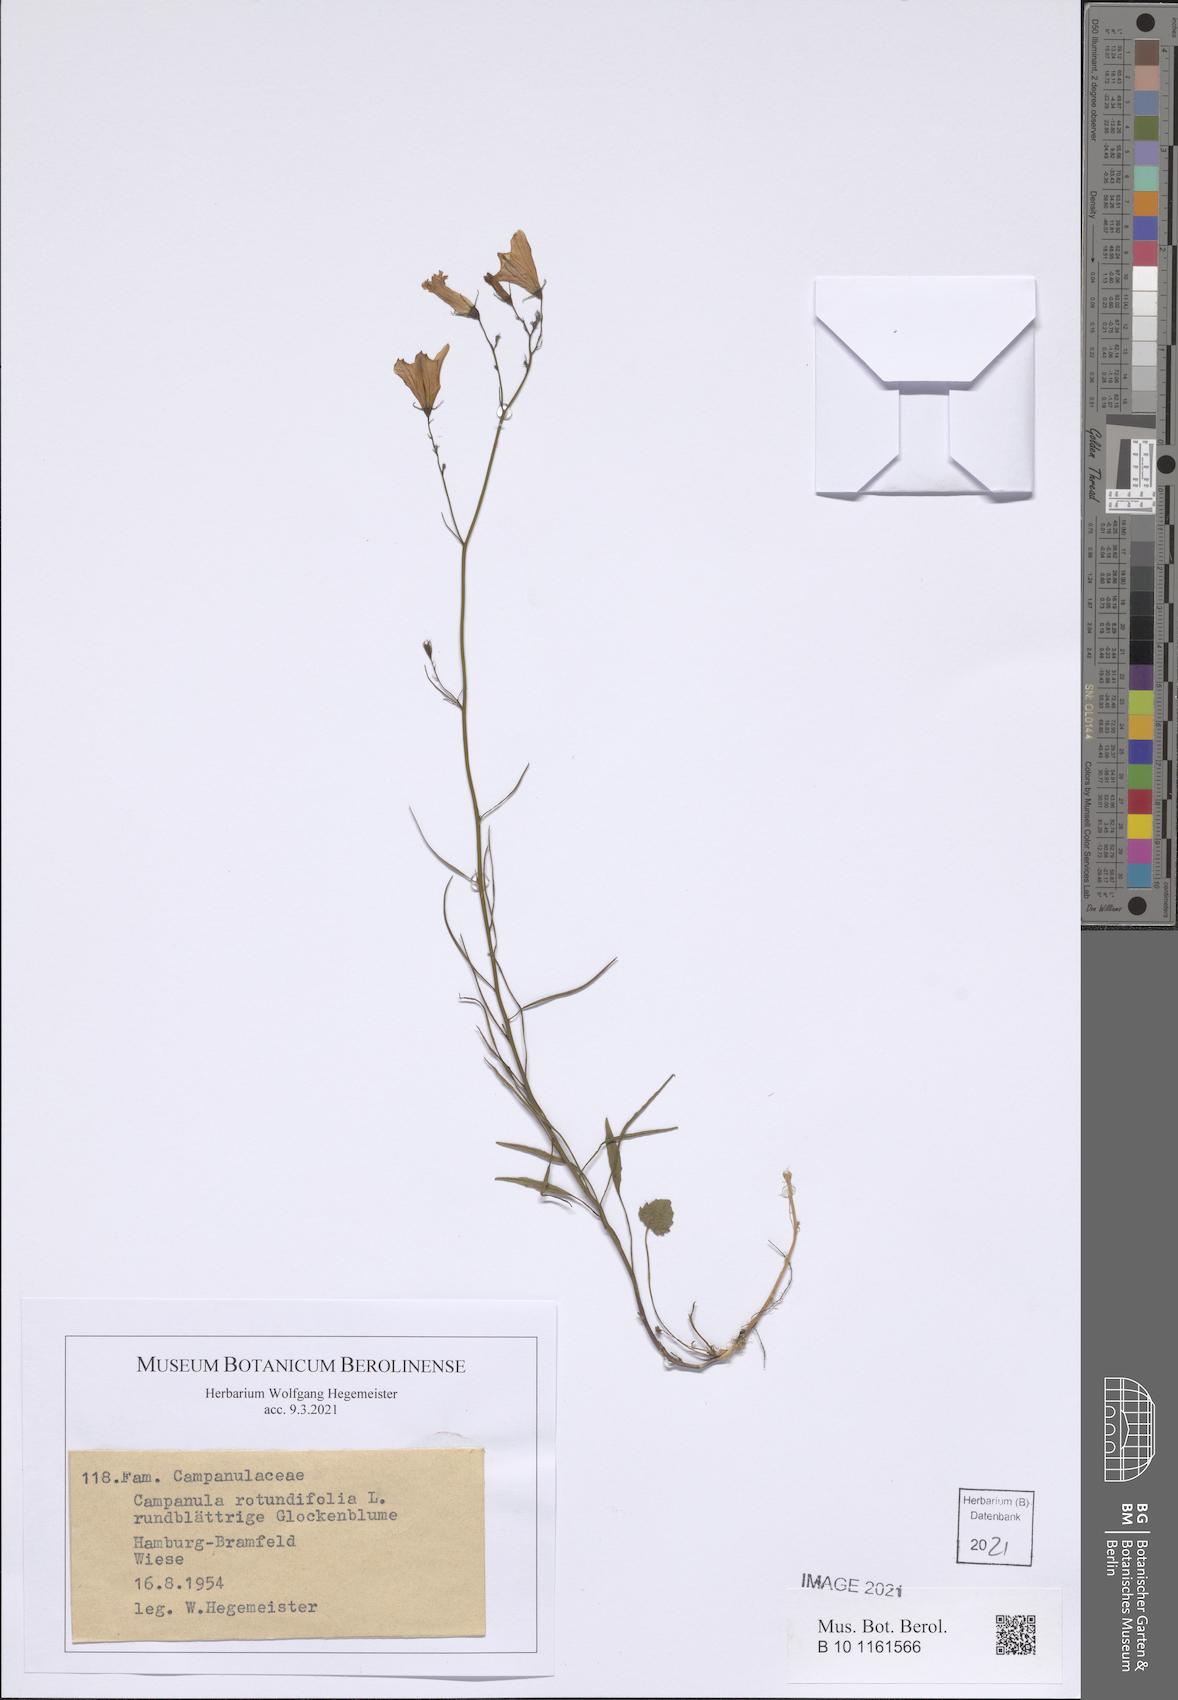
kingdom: Plantae
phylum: Tracheophyta
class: Magnoliopsida
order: Asterales
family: Campanulaceae
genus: Campanula
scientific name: Campanula rotundifolia
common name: Harebell
